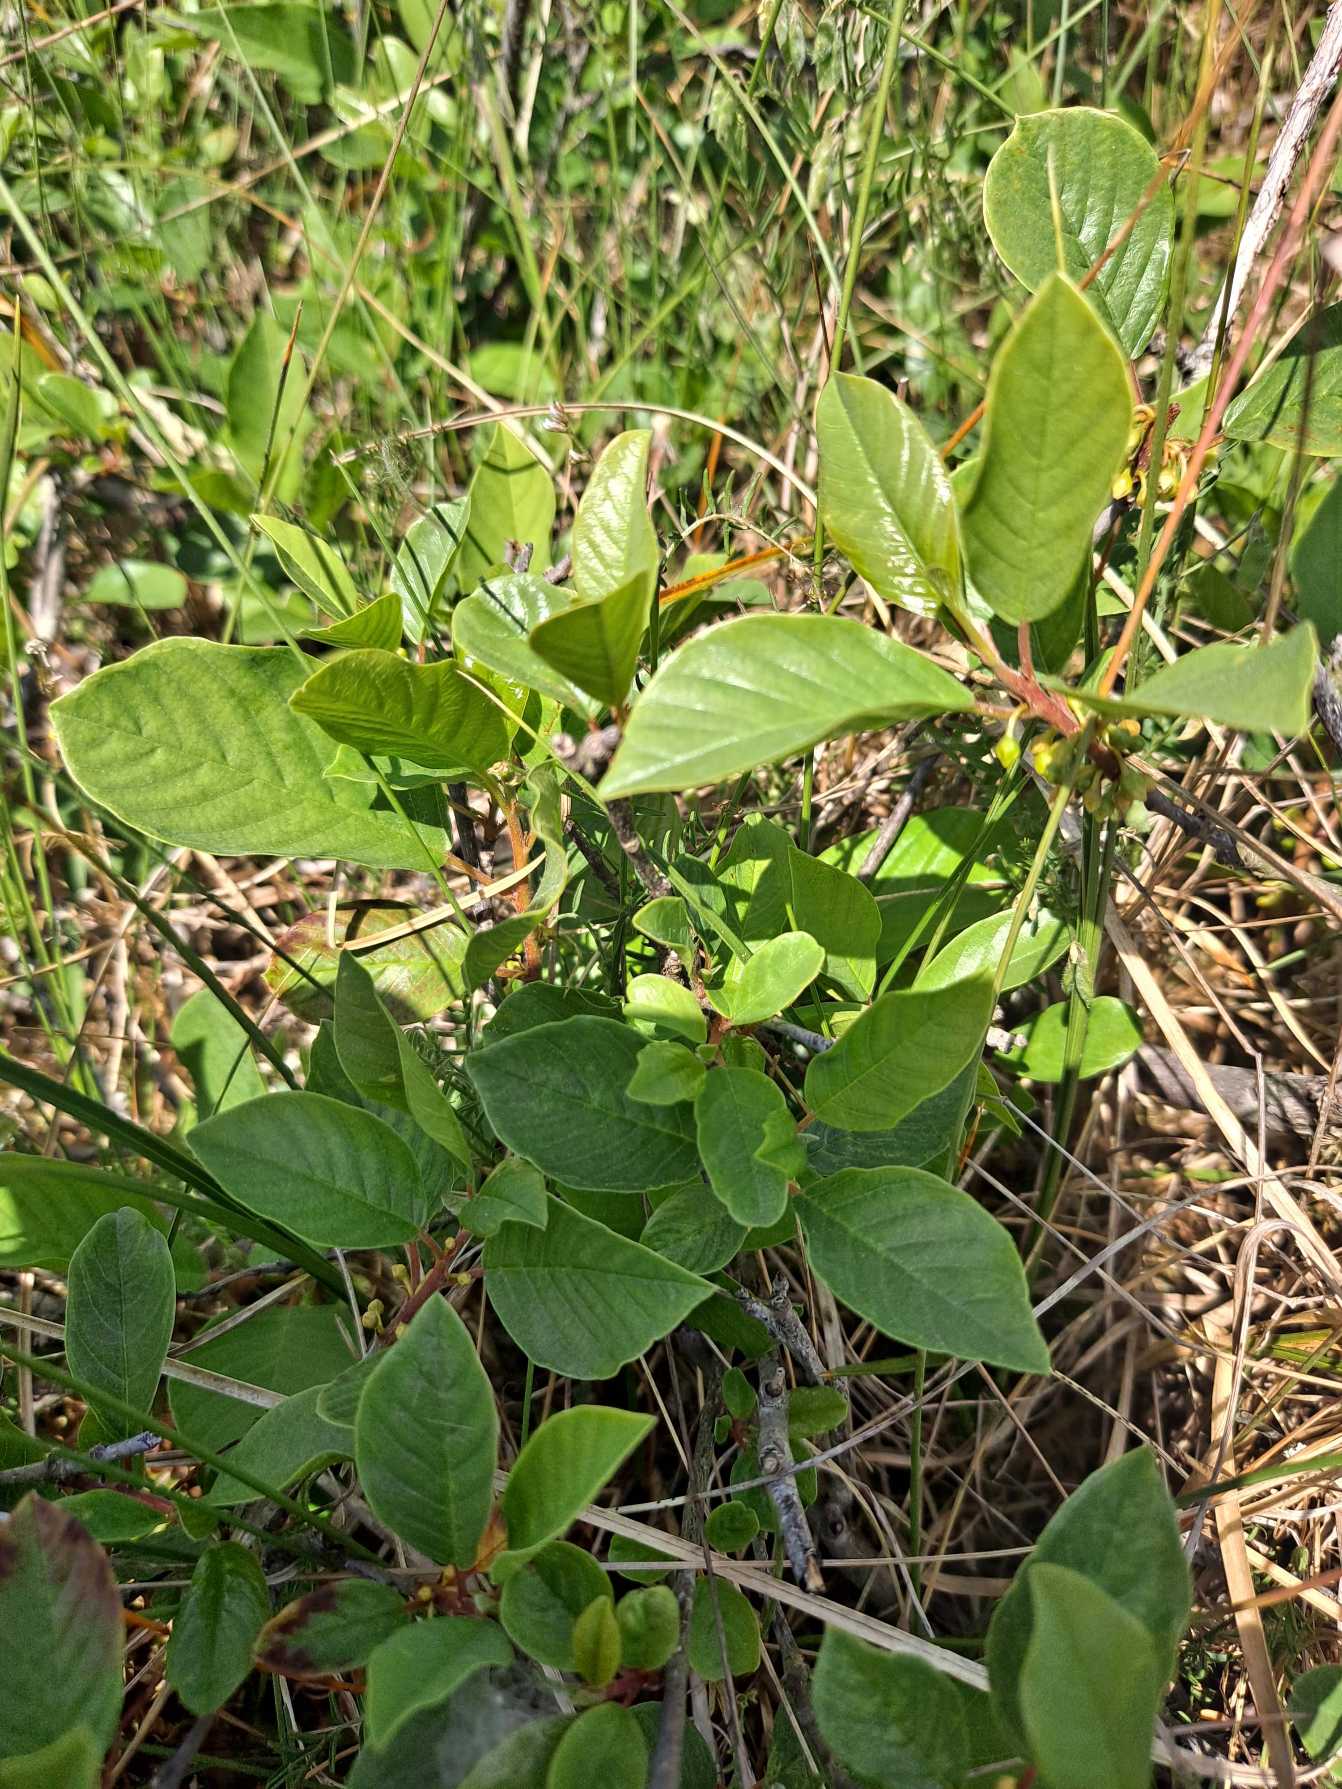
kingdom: Plantae
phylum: Tracheophyta
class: Magnoliopsida
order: Rosales
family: Rhamnaceae
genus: Frangula
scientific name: Frangula alnus
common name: Tørst
